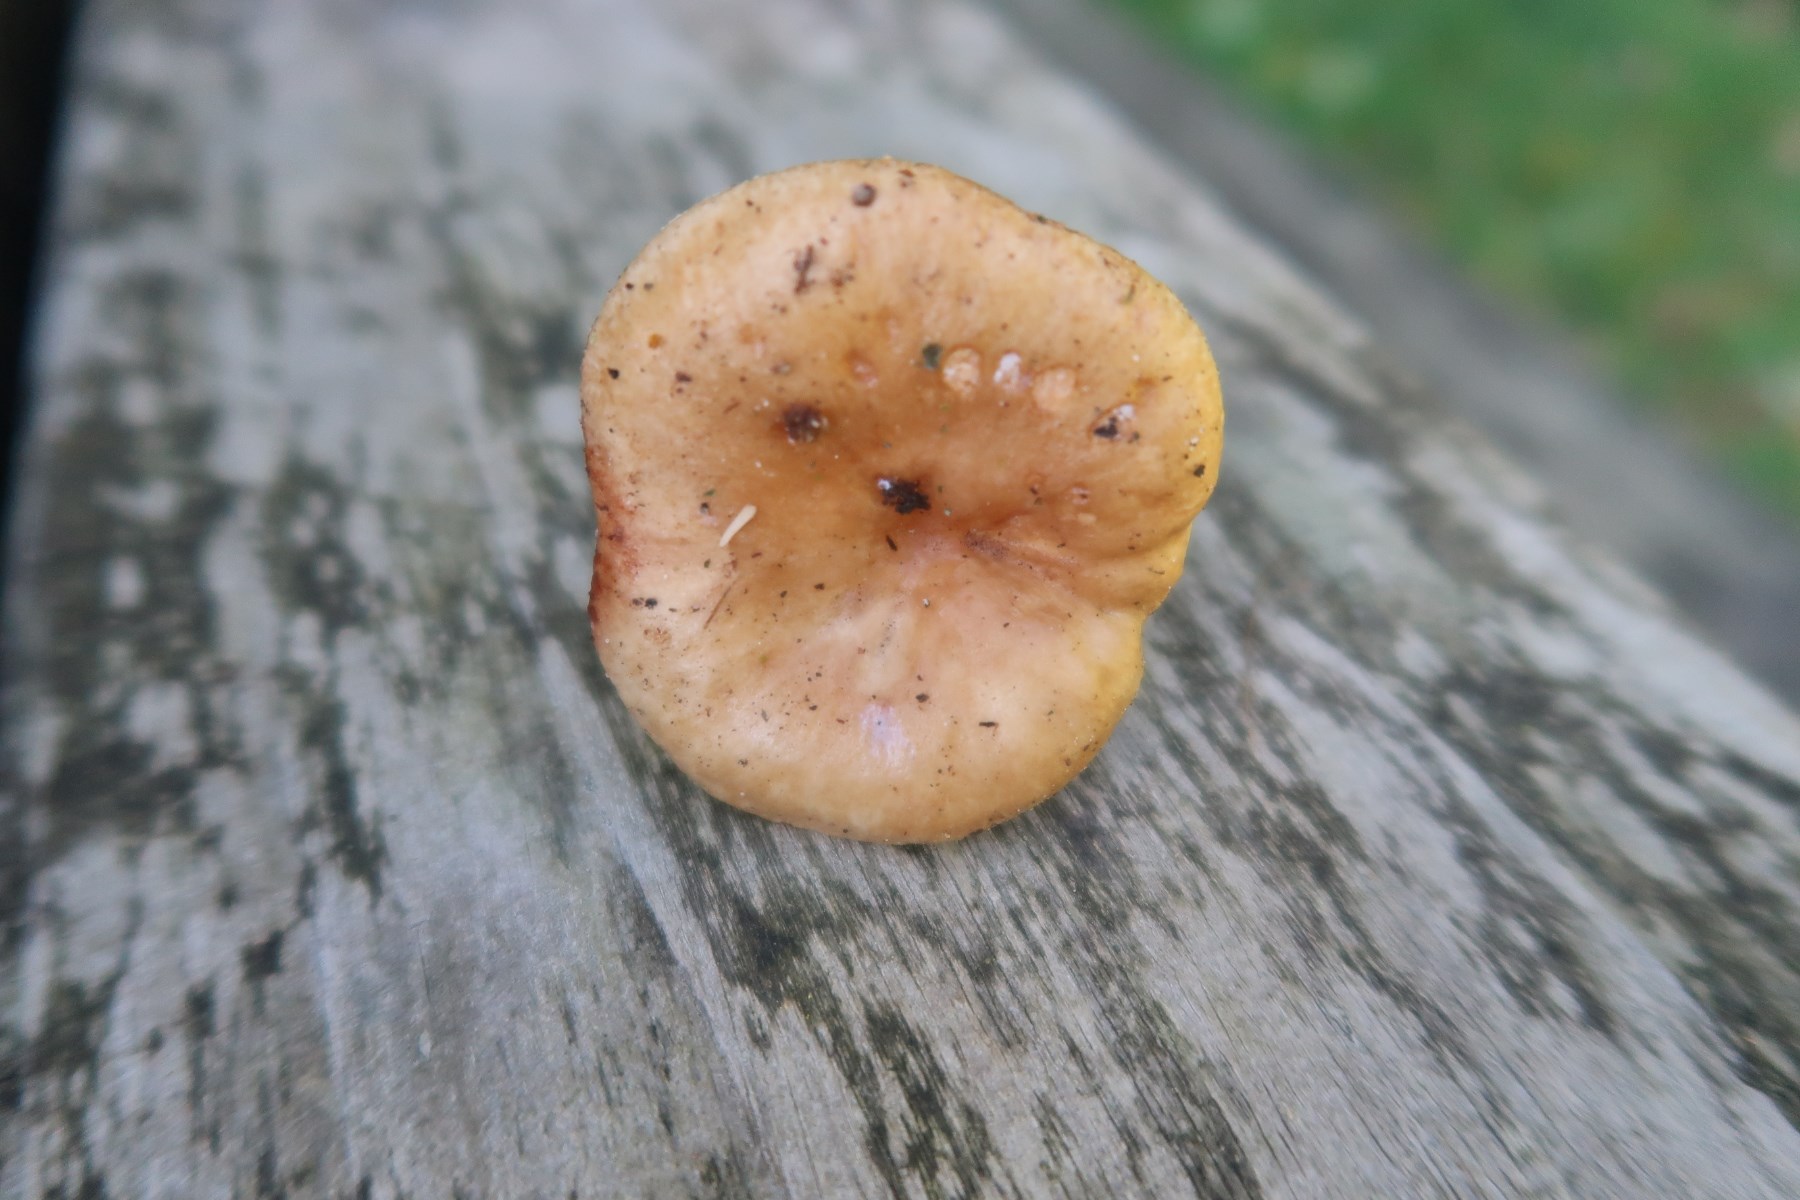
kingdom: Fungi
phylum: Basidiomycota
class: Agaricomycetes
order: Russulales
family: Russulaceae
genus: Lactarius
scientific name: Lactarius pyrogalus
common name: hassel-mælkehat
